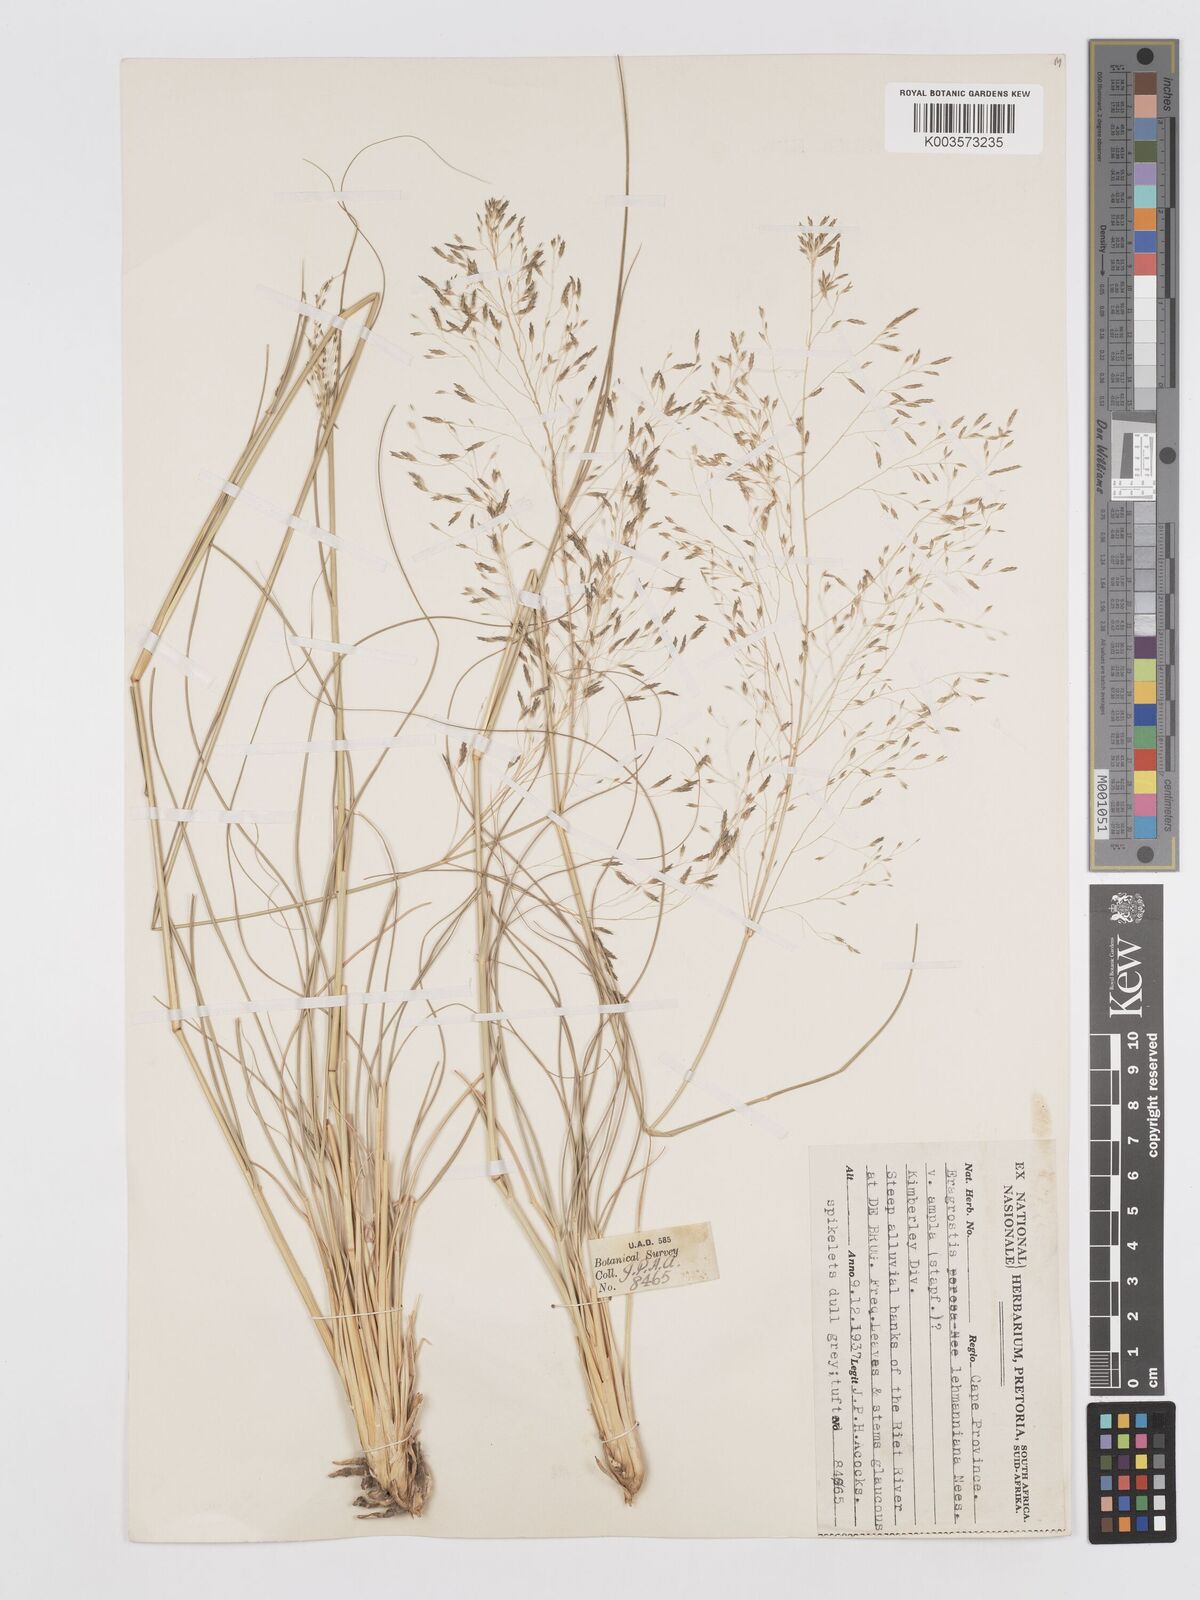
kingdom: Plantae
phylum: Tracheophyta
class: Liliopsida
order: Poales
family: Poaceae
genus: Eragrostis
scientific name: Eragrostis curvula
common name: African love-grass
